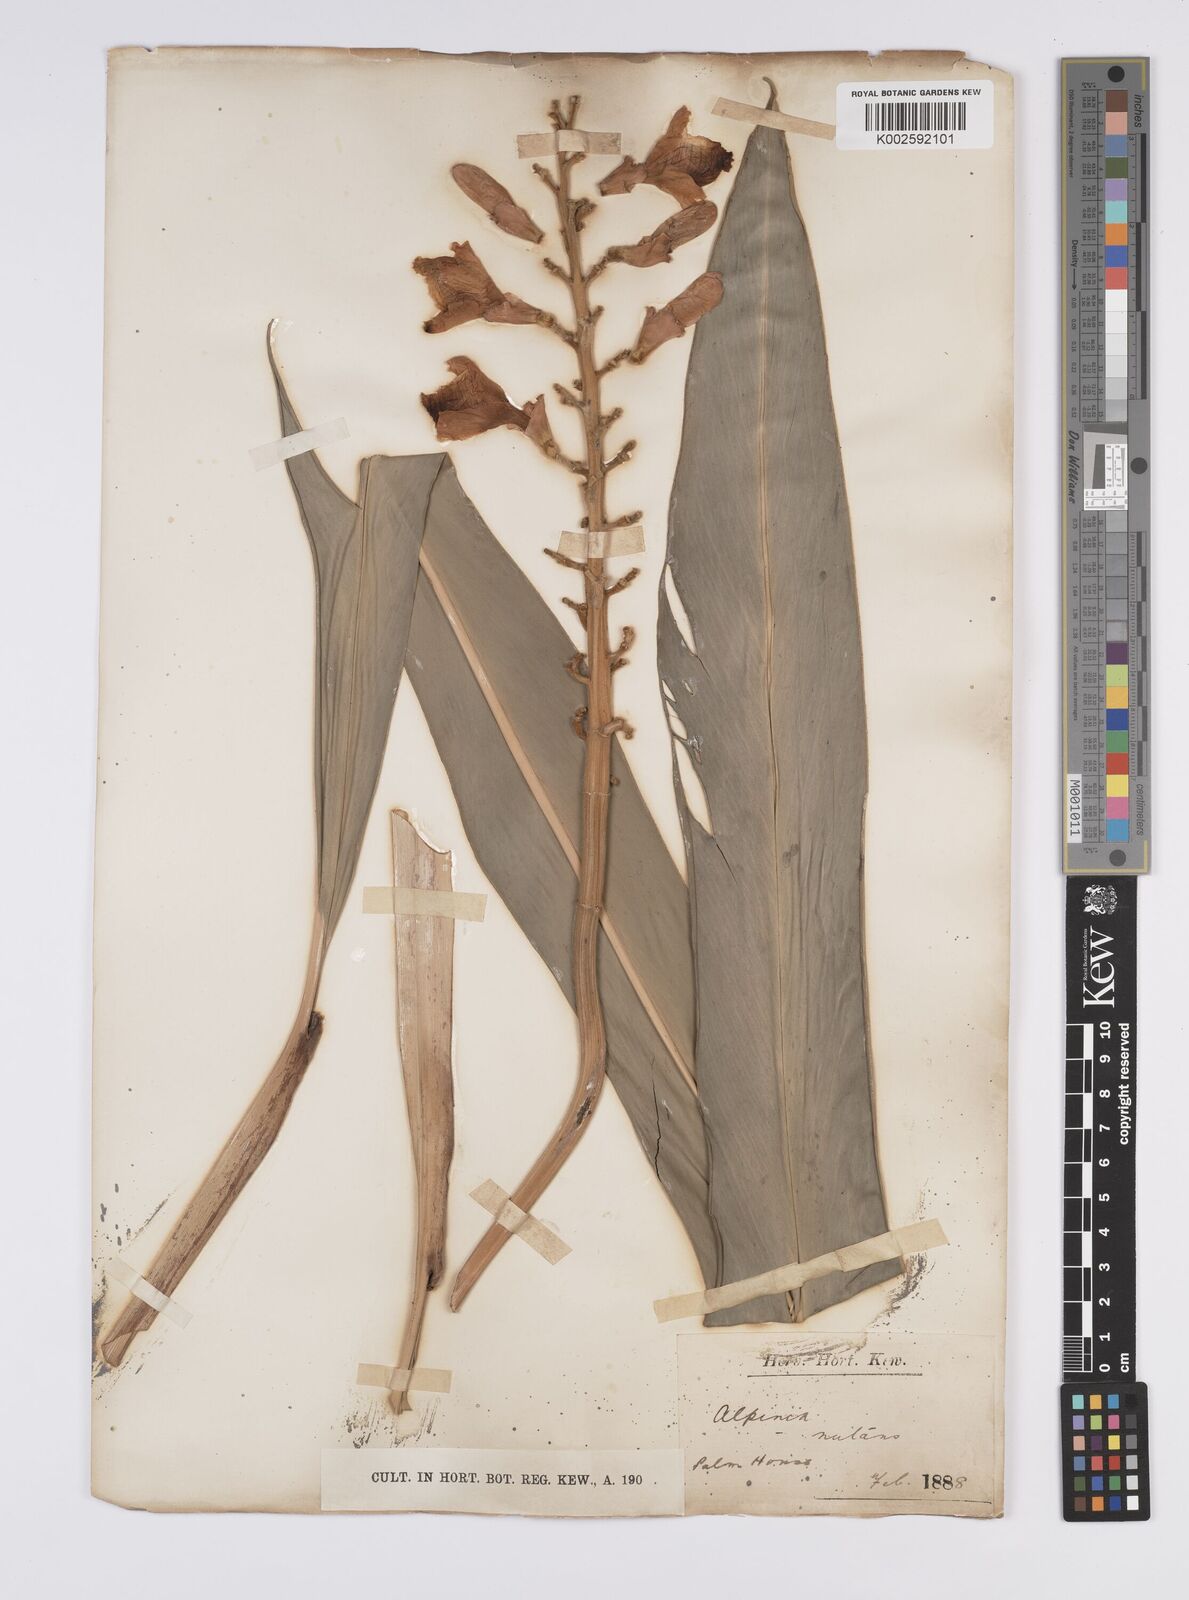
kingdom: Plantae
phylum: Tracheophyta
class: Liliopsida
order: Zingiberales
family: Zingiberaceae
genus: Alpinia
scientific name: Alpinia
